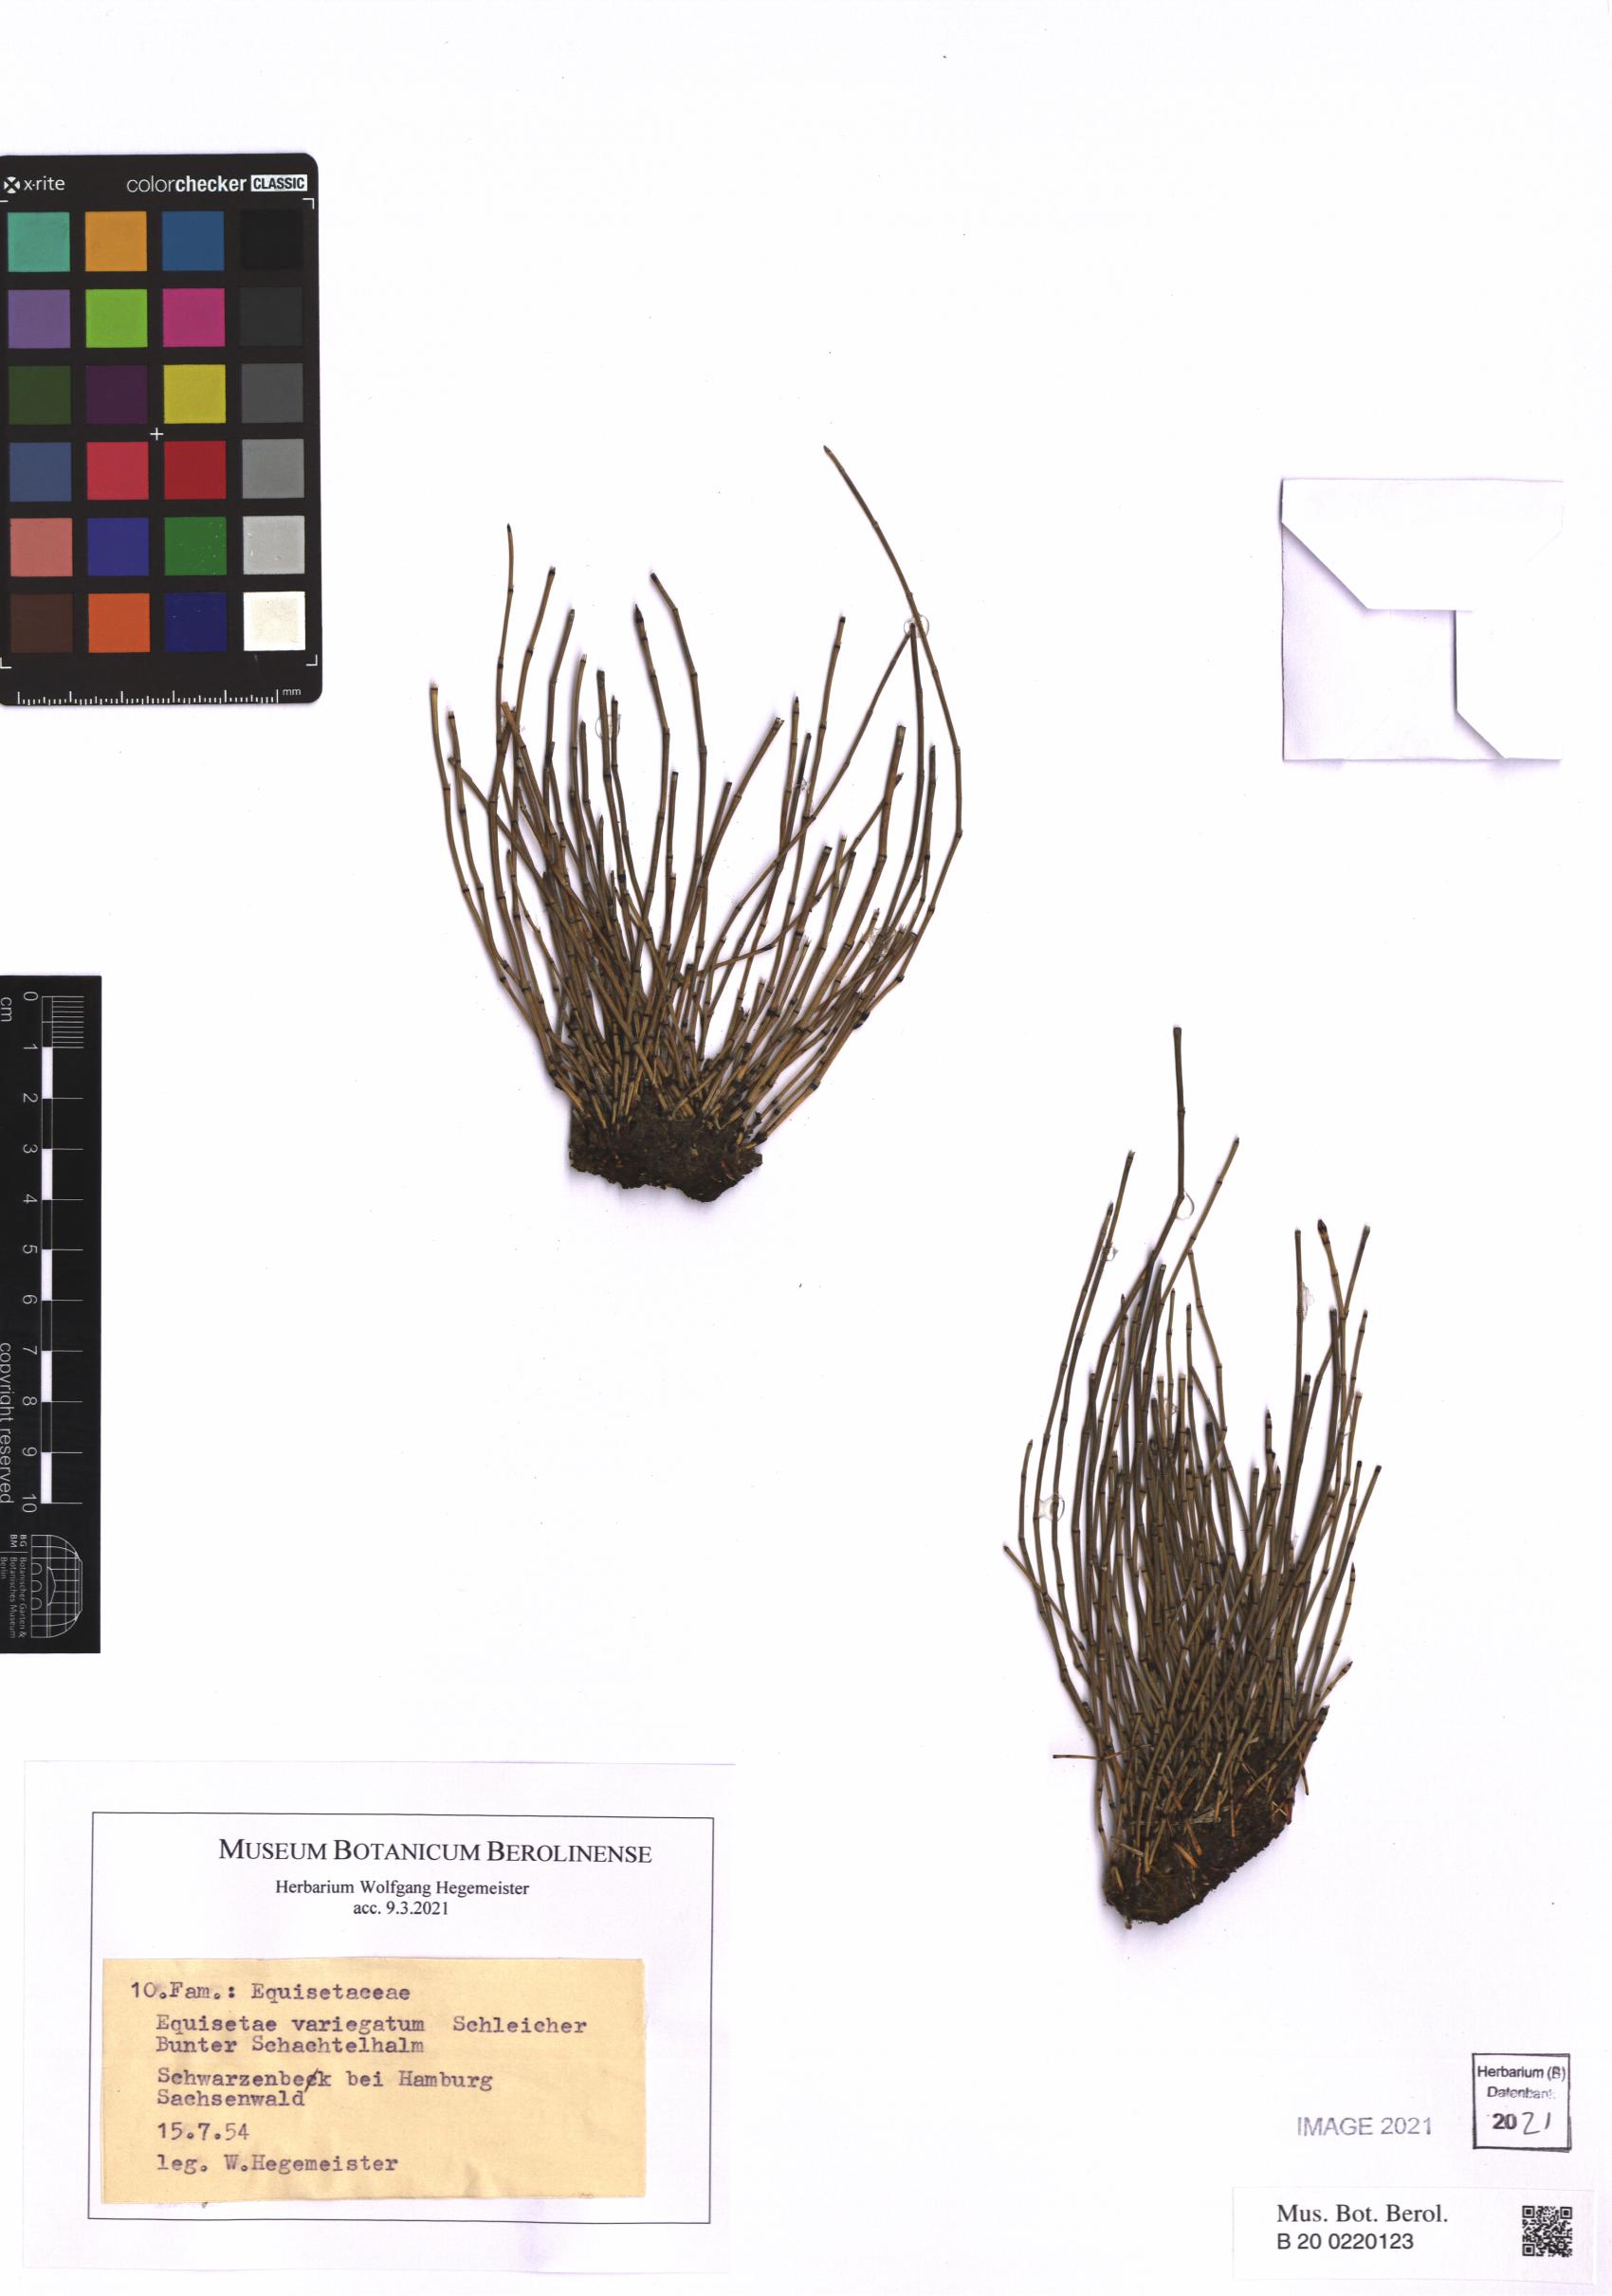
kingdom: Plantae
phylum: Tracheophyta
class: Polypodiopsida
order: Equisetales
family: Equisetaceae
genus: Equisetum
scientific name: Equisetum variegatum
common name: Variegated horsetail
